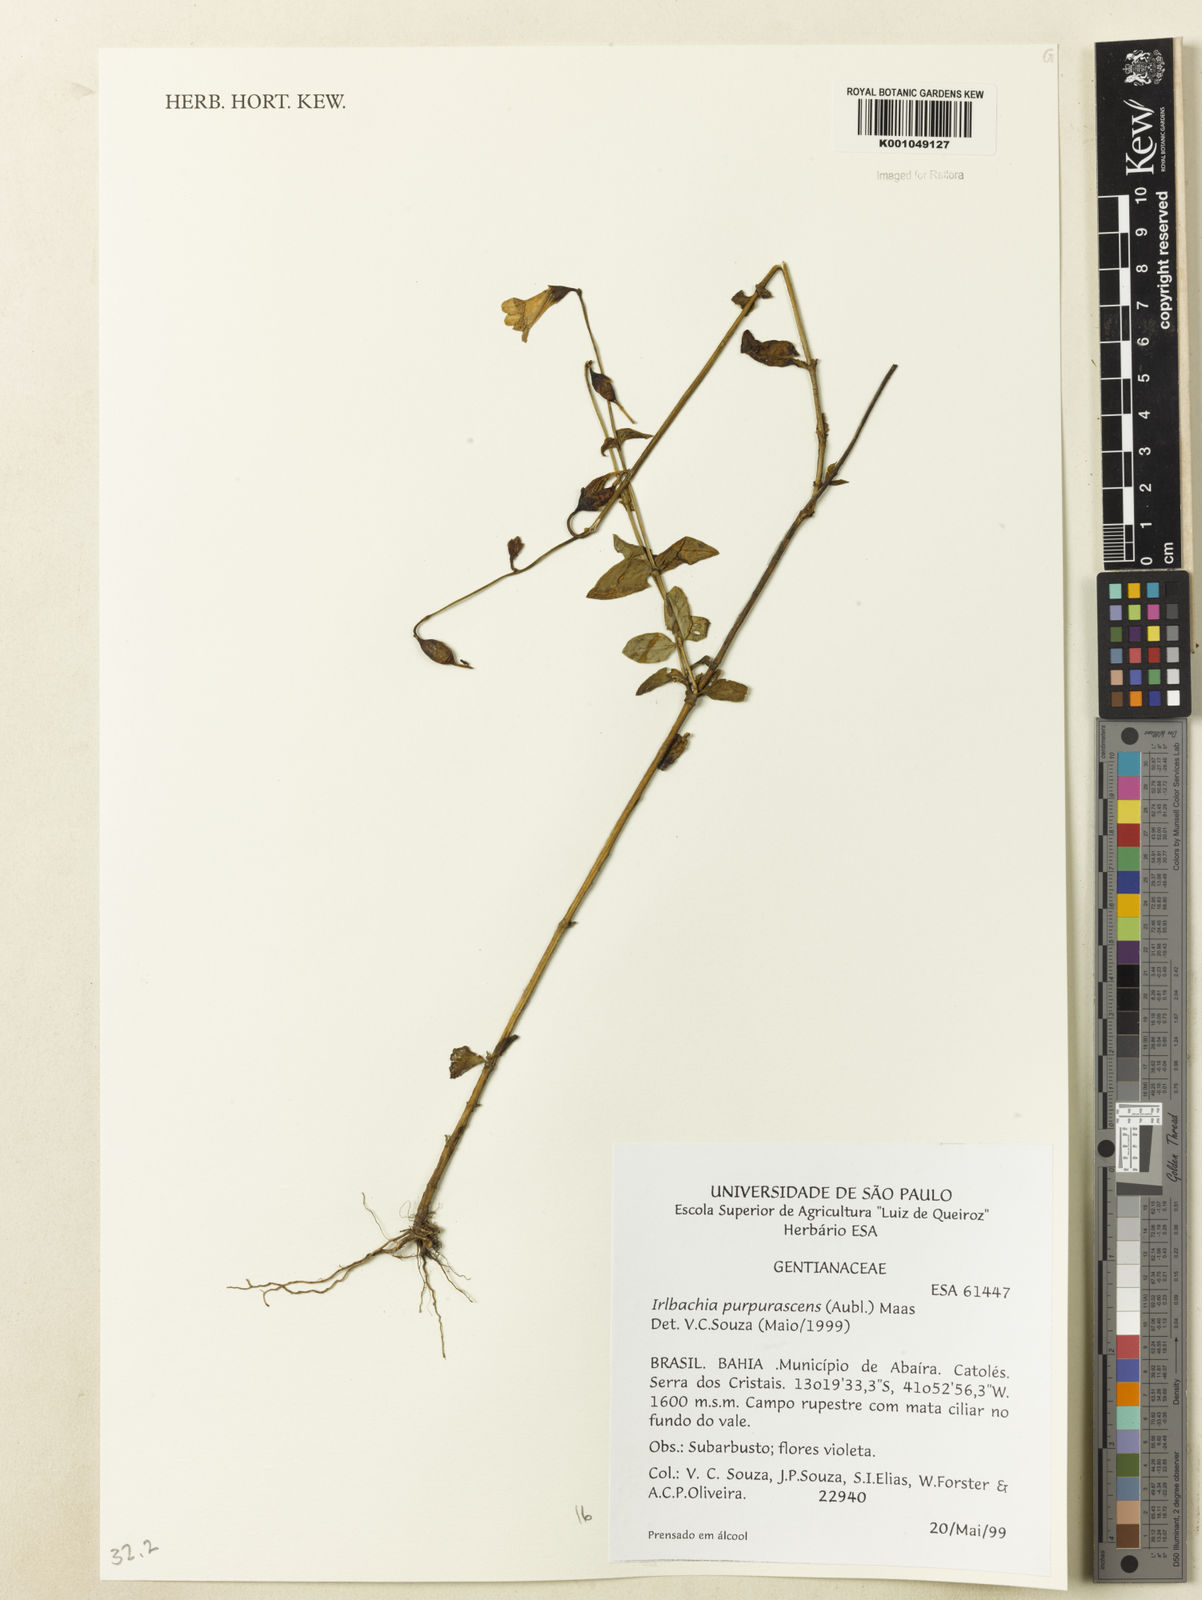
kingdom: Plantae
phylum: Tracheophyta
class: Magnoliopsida
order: Gentianales
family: Gentianaceae
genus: Chelonanthus
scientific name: Chelonanthus purpurascens
